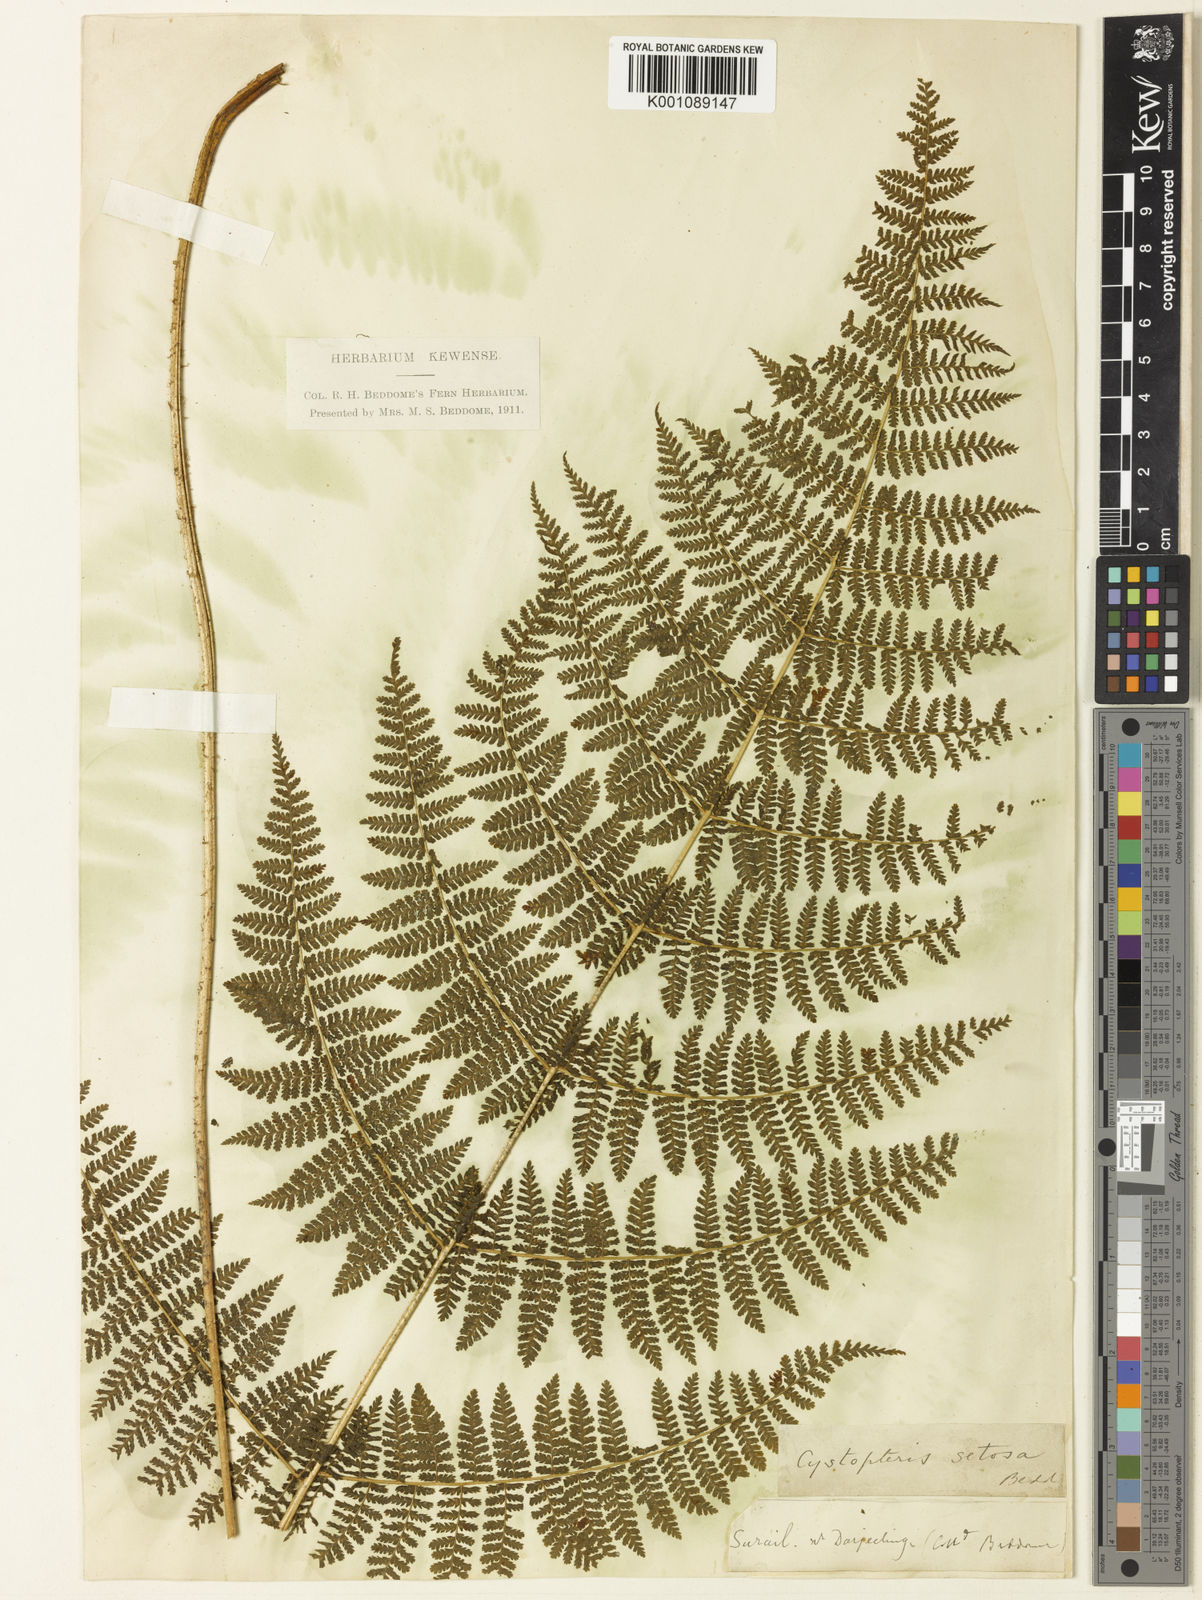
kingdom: Plantae
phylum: Tracheophyta
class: Polypodiopsida
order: Polypodiales
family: Cystopteridaceae
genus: Acystopteris
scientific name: Acystopteris tenuisecta
